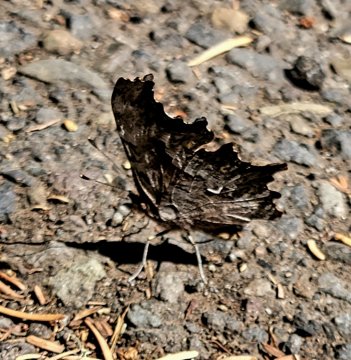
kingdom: Animalia
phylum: Arthropoda
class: Insecta
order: Lepidoptera
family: Nymphalidae
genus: Polygonia
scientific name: Polygonia oreas
